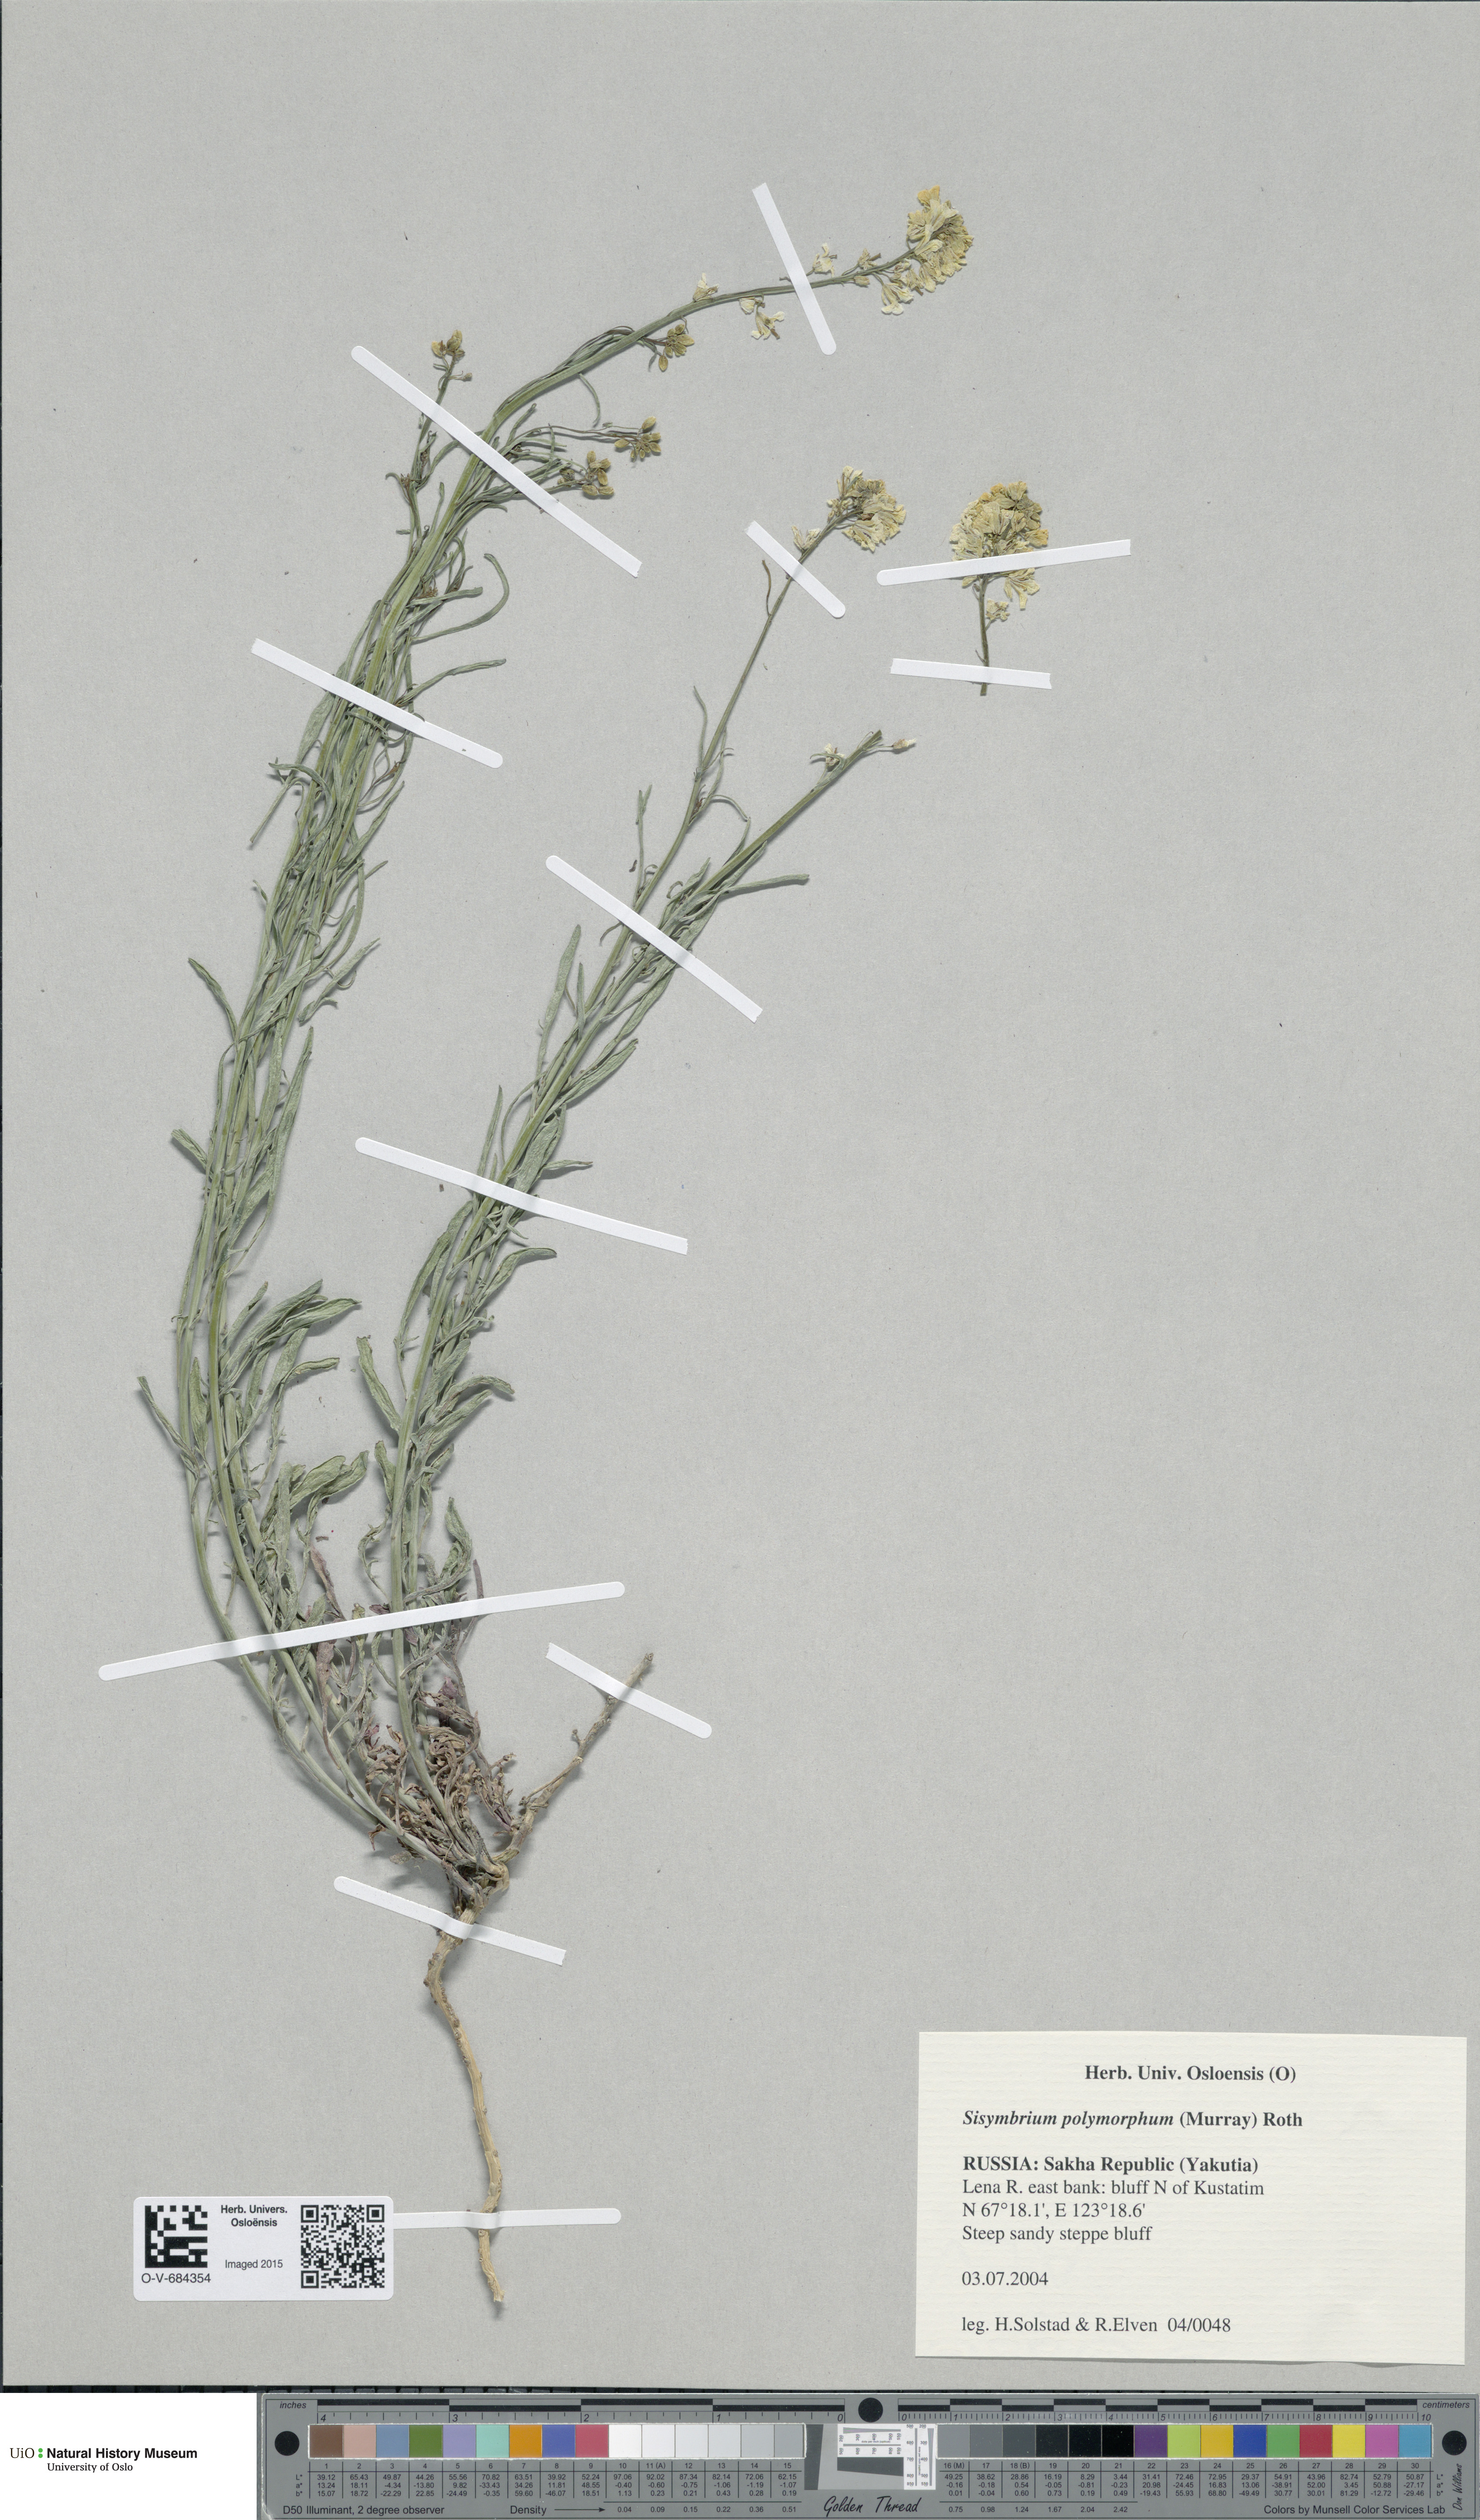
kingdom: Plantae
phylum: Tracheophyta
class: Magnoliopsida
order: Brassicales
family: Brassicaceae
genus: Sisymbrium
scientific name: Sisymbrium polymorphum
